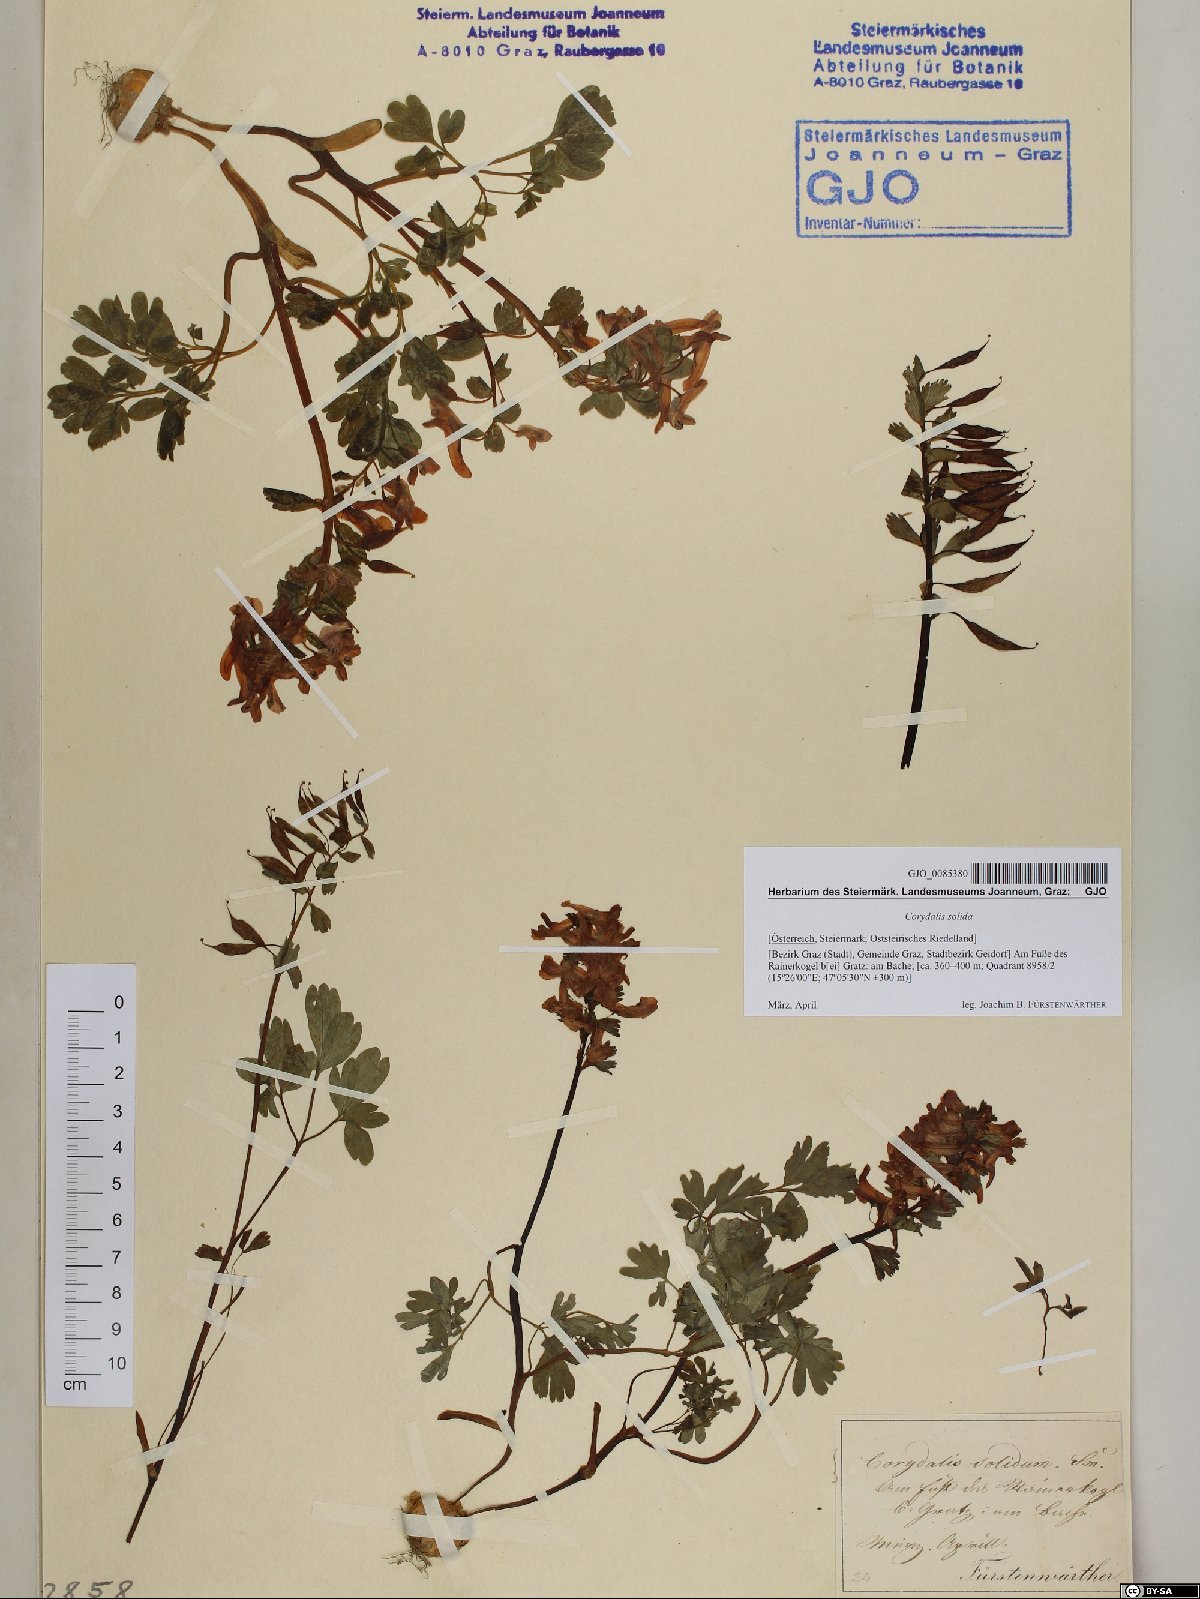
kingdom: Plantae
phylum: Tracheophyta
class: Magnoliopsida
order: Ranunculales
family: Papaveraceae
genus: Corydalis
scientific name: Corydalis solida
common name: Bird-in-a-bush
